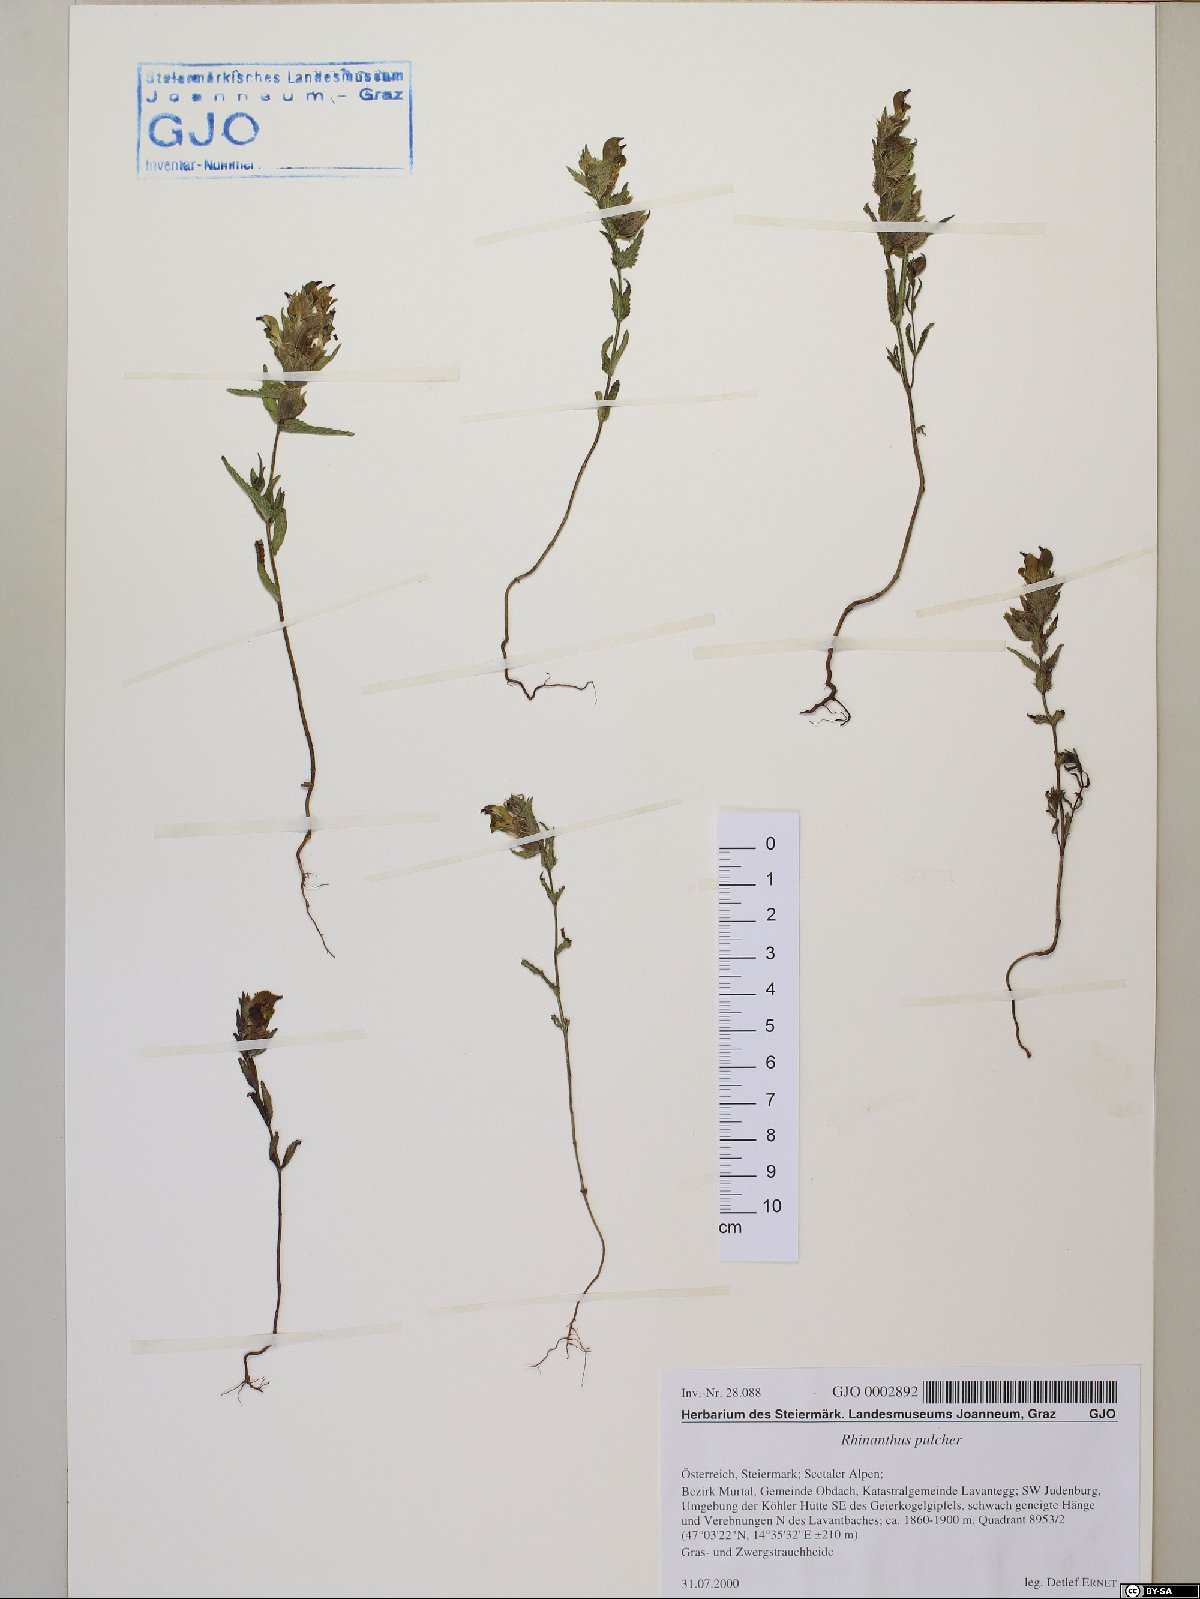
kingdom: Plantae
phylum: Tracheophyta
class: Magnoliopsida
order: Lamiales
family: Orobanchaceae
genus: Rhinanthus
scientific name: Rhinanthus riphaeus
